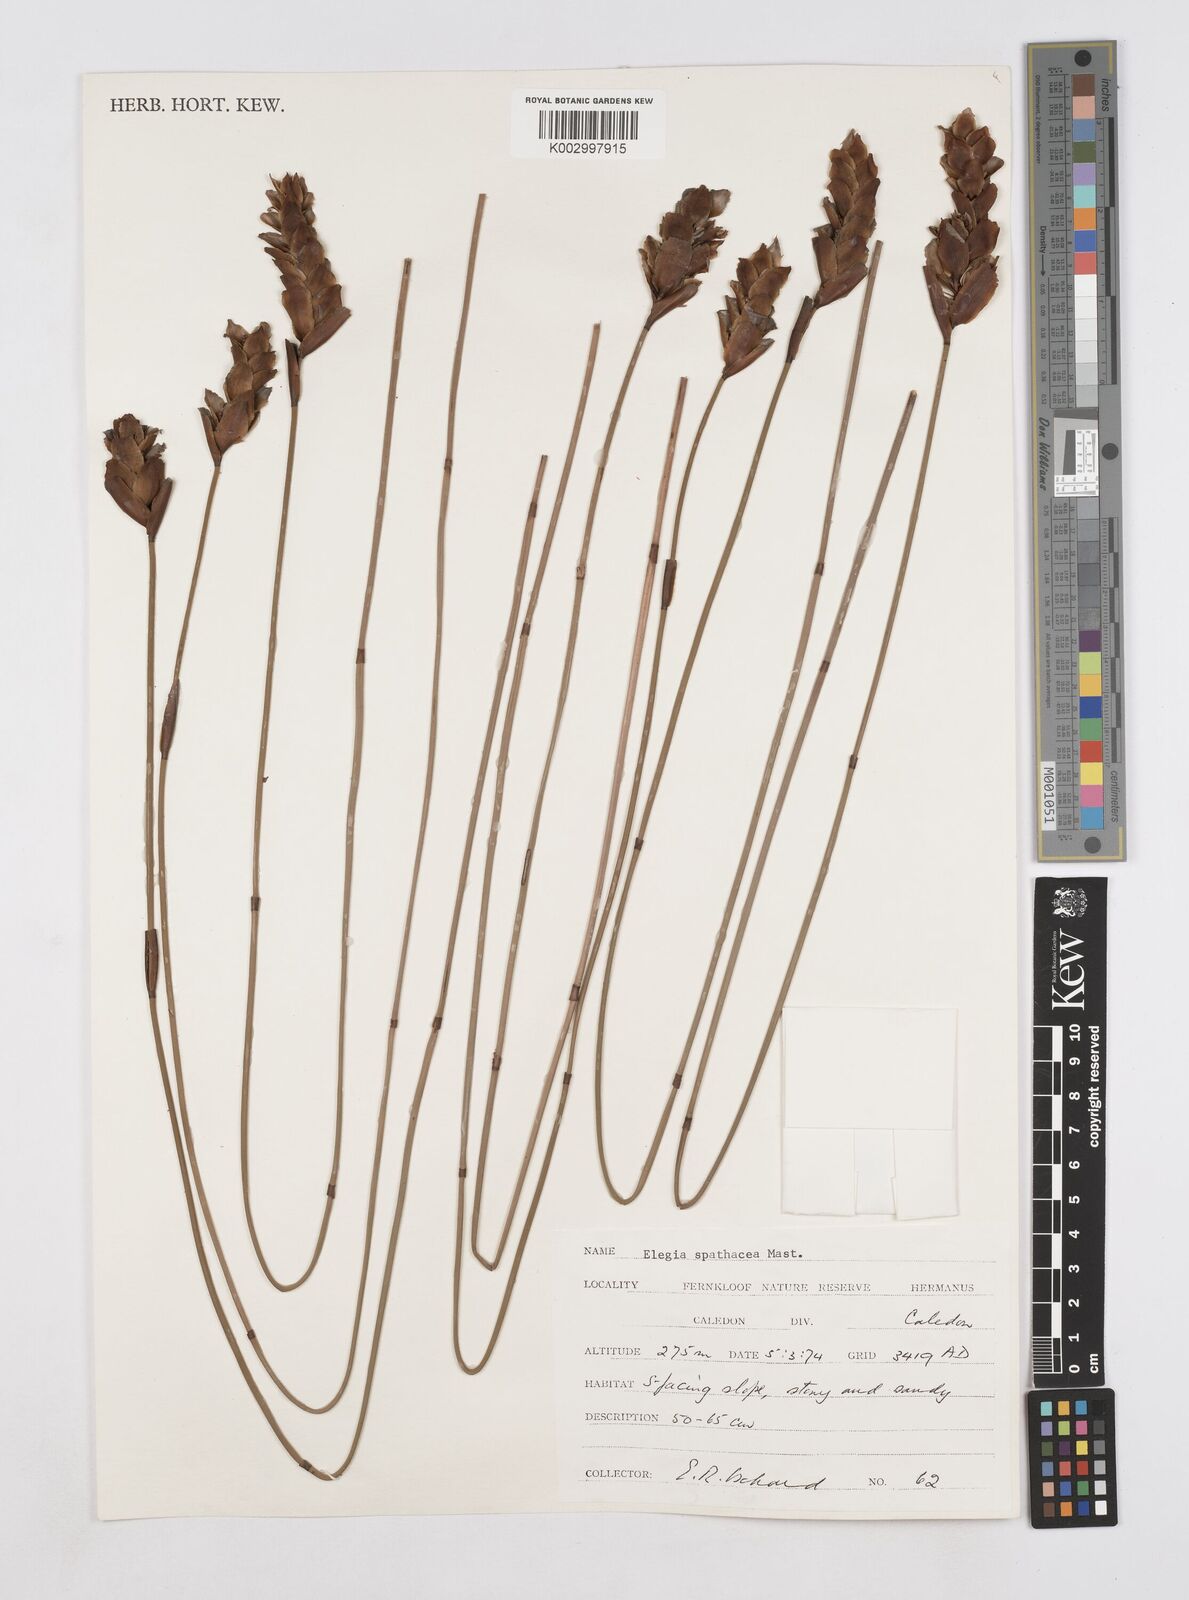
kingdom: Plantae
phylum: Tracheophyta
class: Liliopsida
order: Poales
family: Restionaceae
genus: Elegia
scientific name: Elegia spathacea
